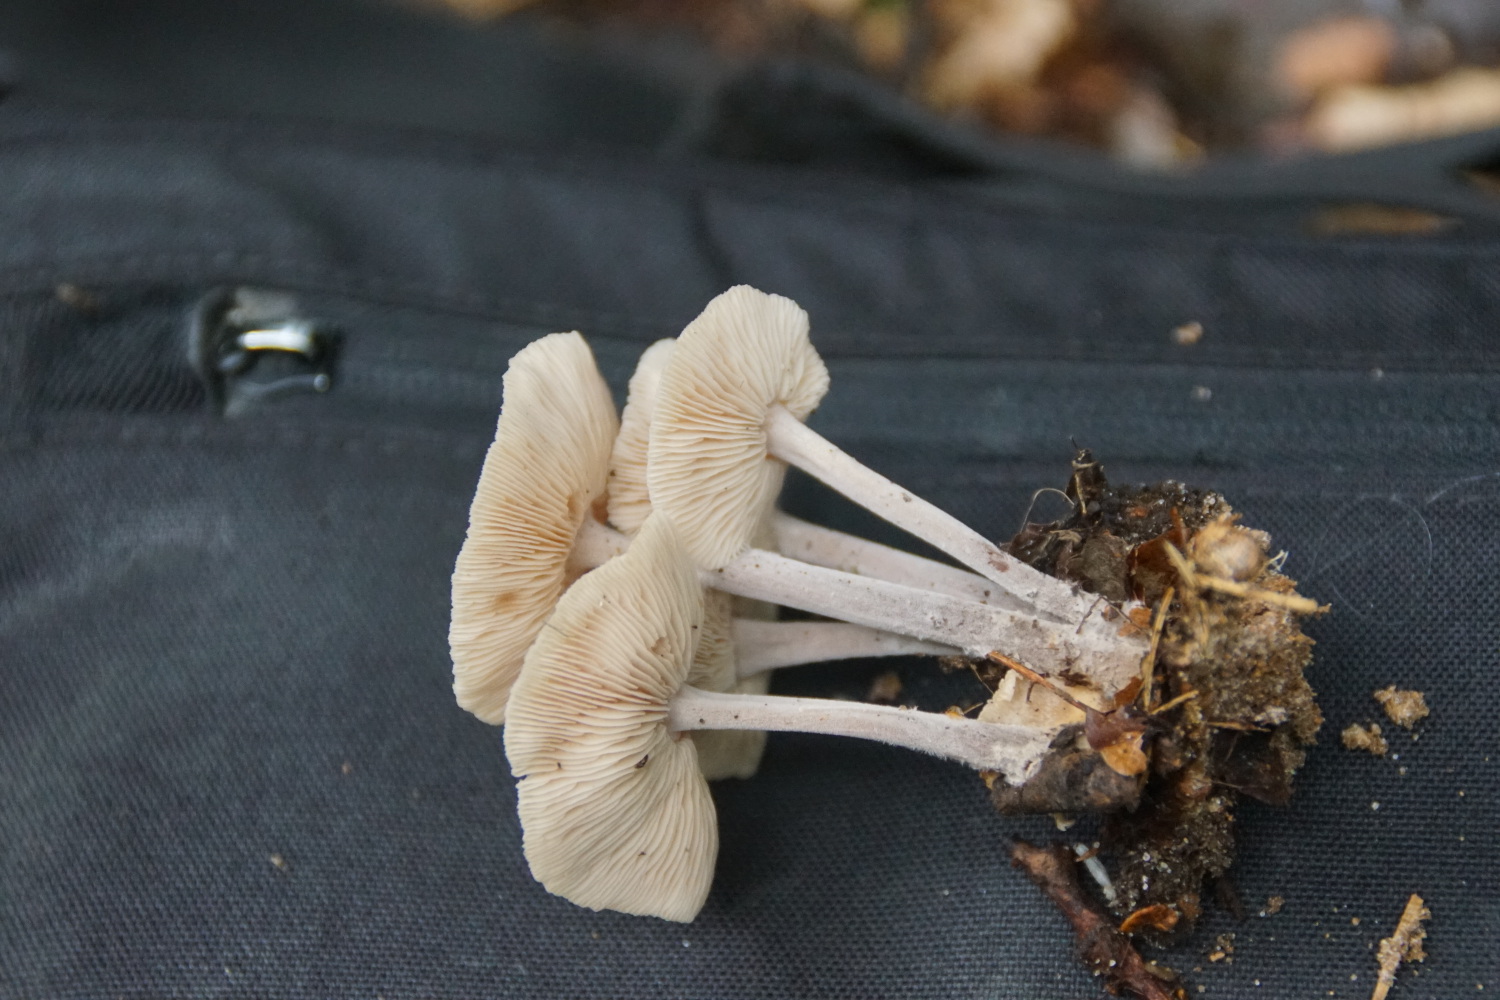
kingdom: Fungi
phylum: Basidiomycota
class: Agaricomycetes
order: Agaricales
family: Omphalotaceae
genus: Collybiopsis
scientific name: Collybiopsis confluens
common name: knippe-fladhat
